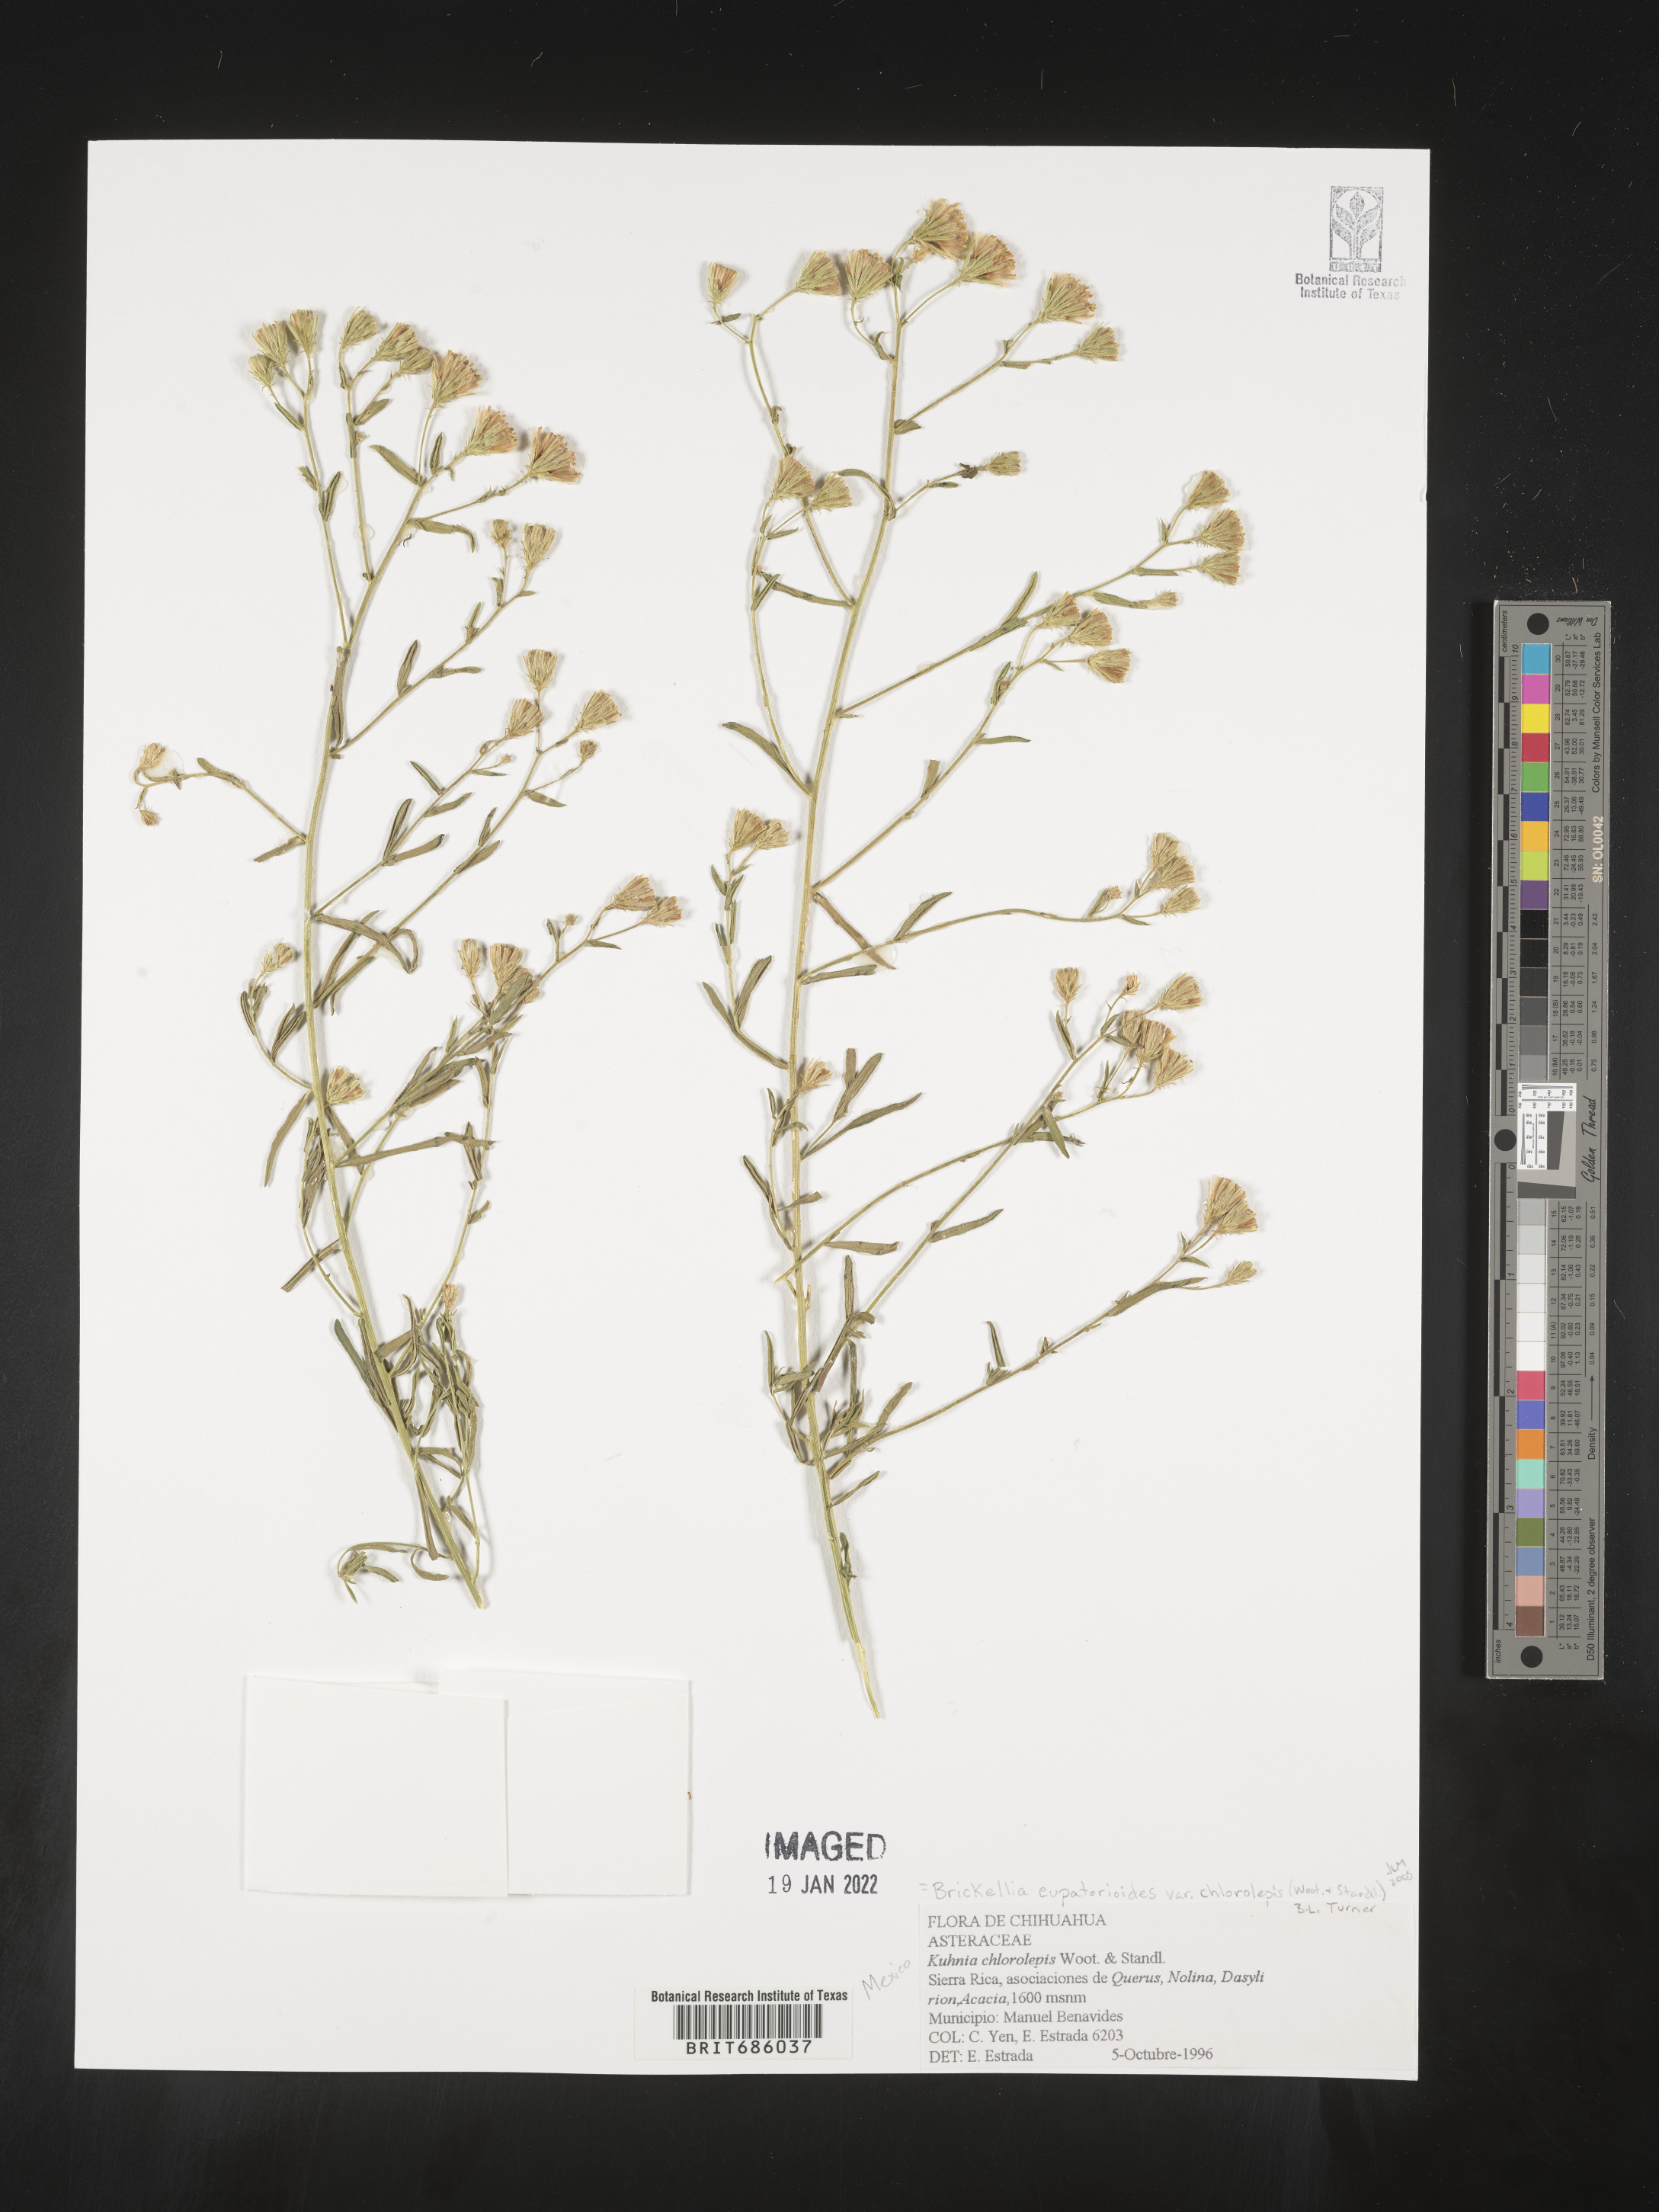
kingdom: Plantae
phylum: Tracheophyta
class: Magnoliopsida
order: Asterales
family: Asteraceae
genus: Brickellia
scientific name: Brickellia
